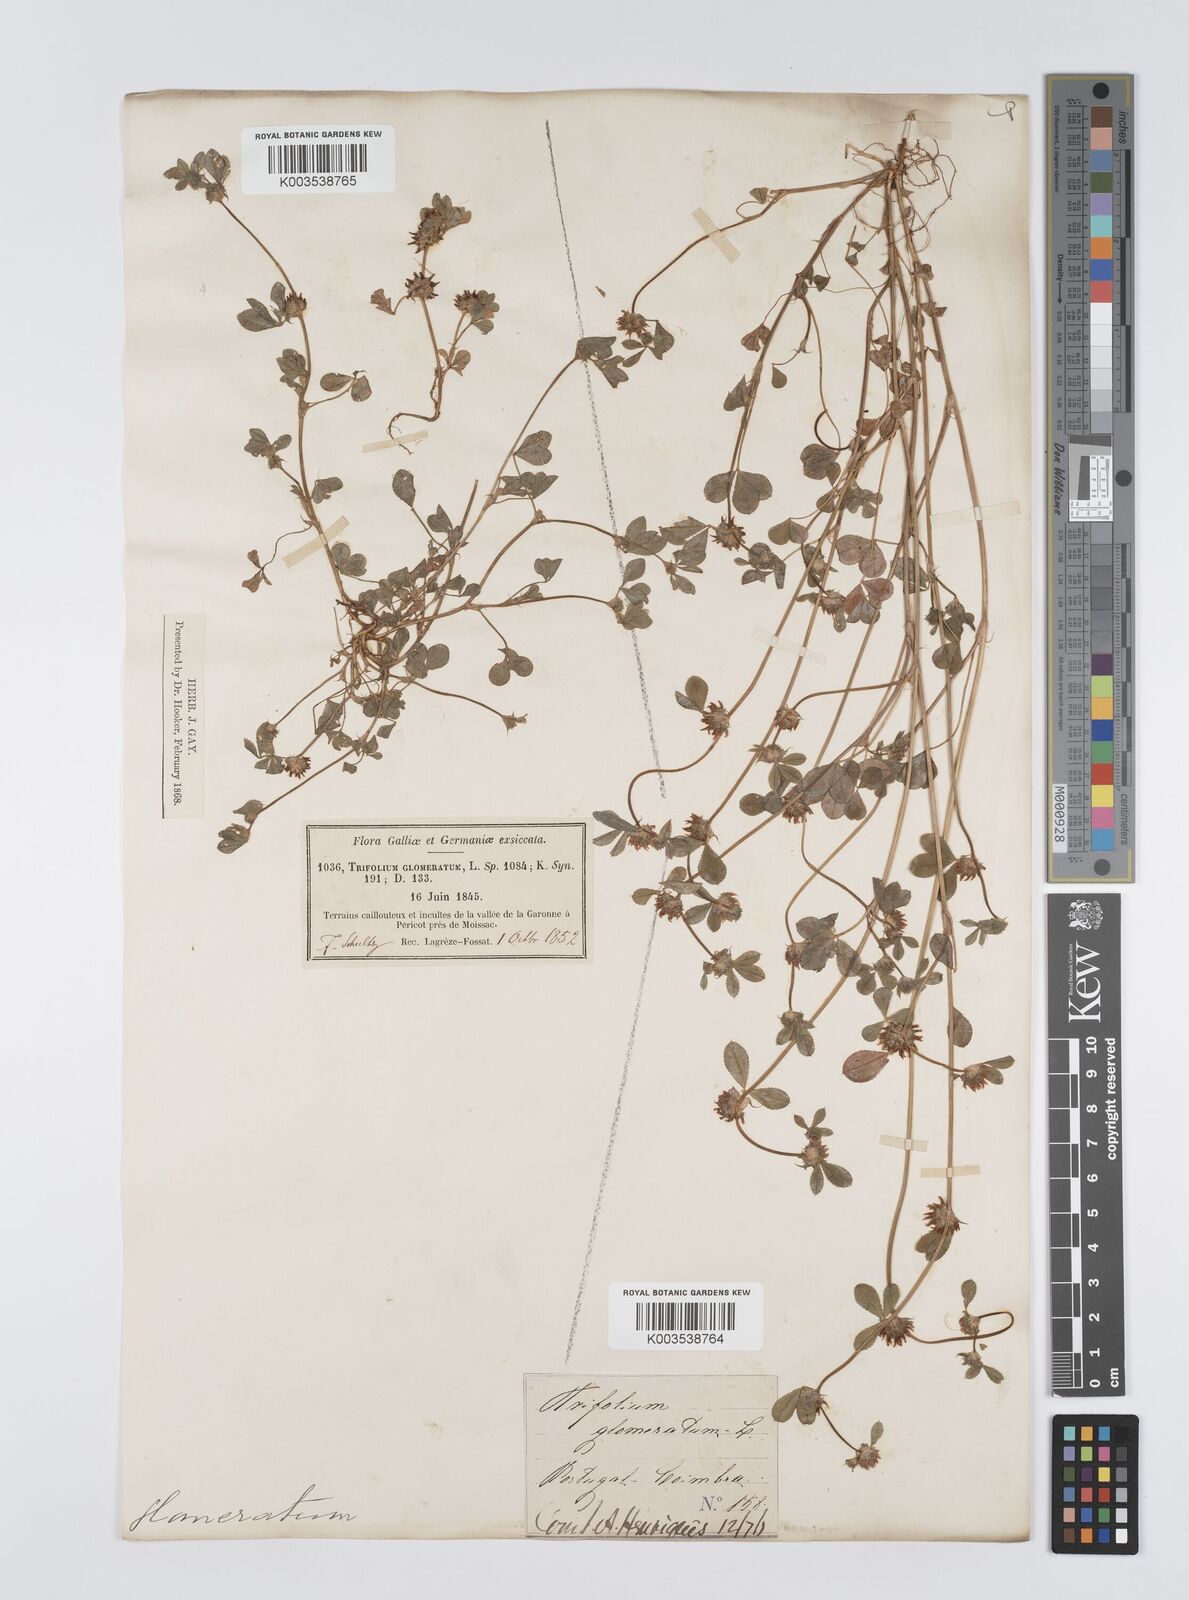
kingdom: Plantae
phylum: Tracheophyta
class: Magnoliopsida
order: Fabales
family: Fabaceae
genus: Trifolium
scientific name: Trifolium glomeratum
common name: Clustered clover
